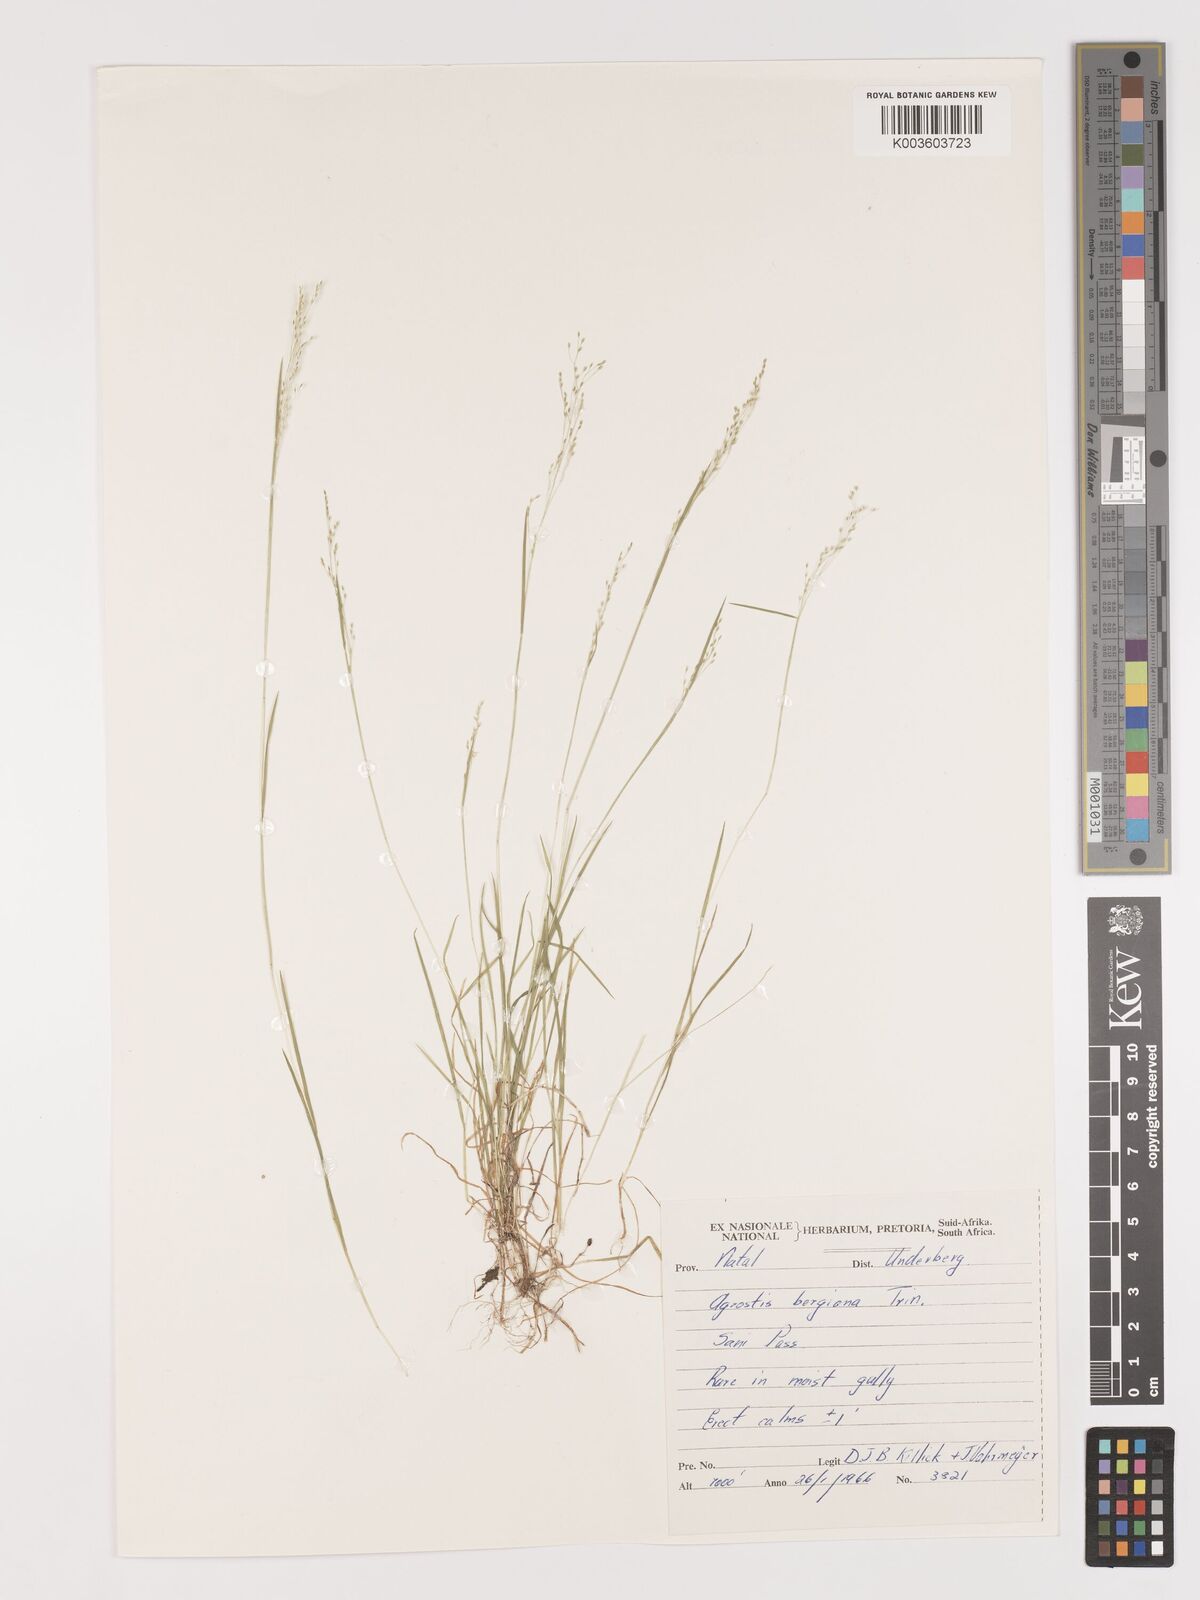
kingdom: Plantae
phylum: Tracheophyta
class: Liliopsida
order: Poales
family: Poaceae
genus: Agrostis
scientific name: Agrostis bergiana
